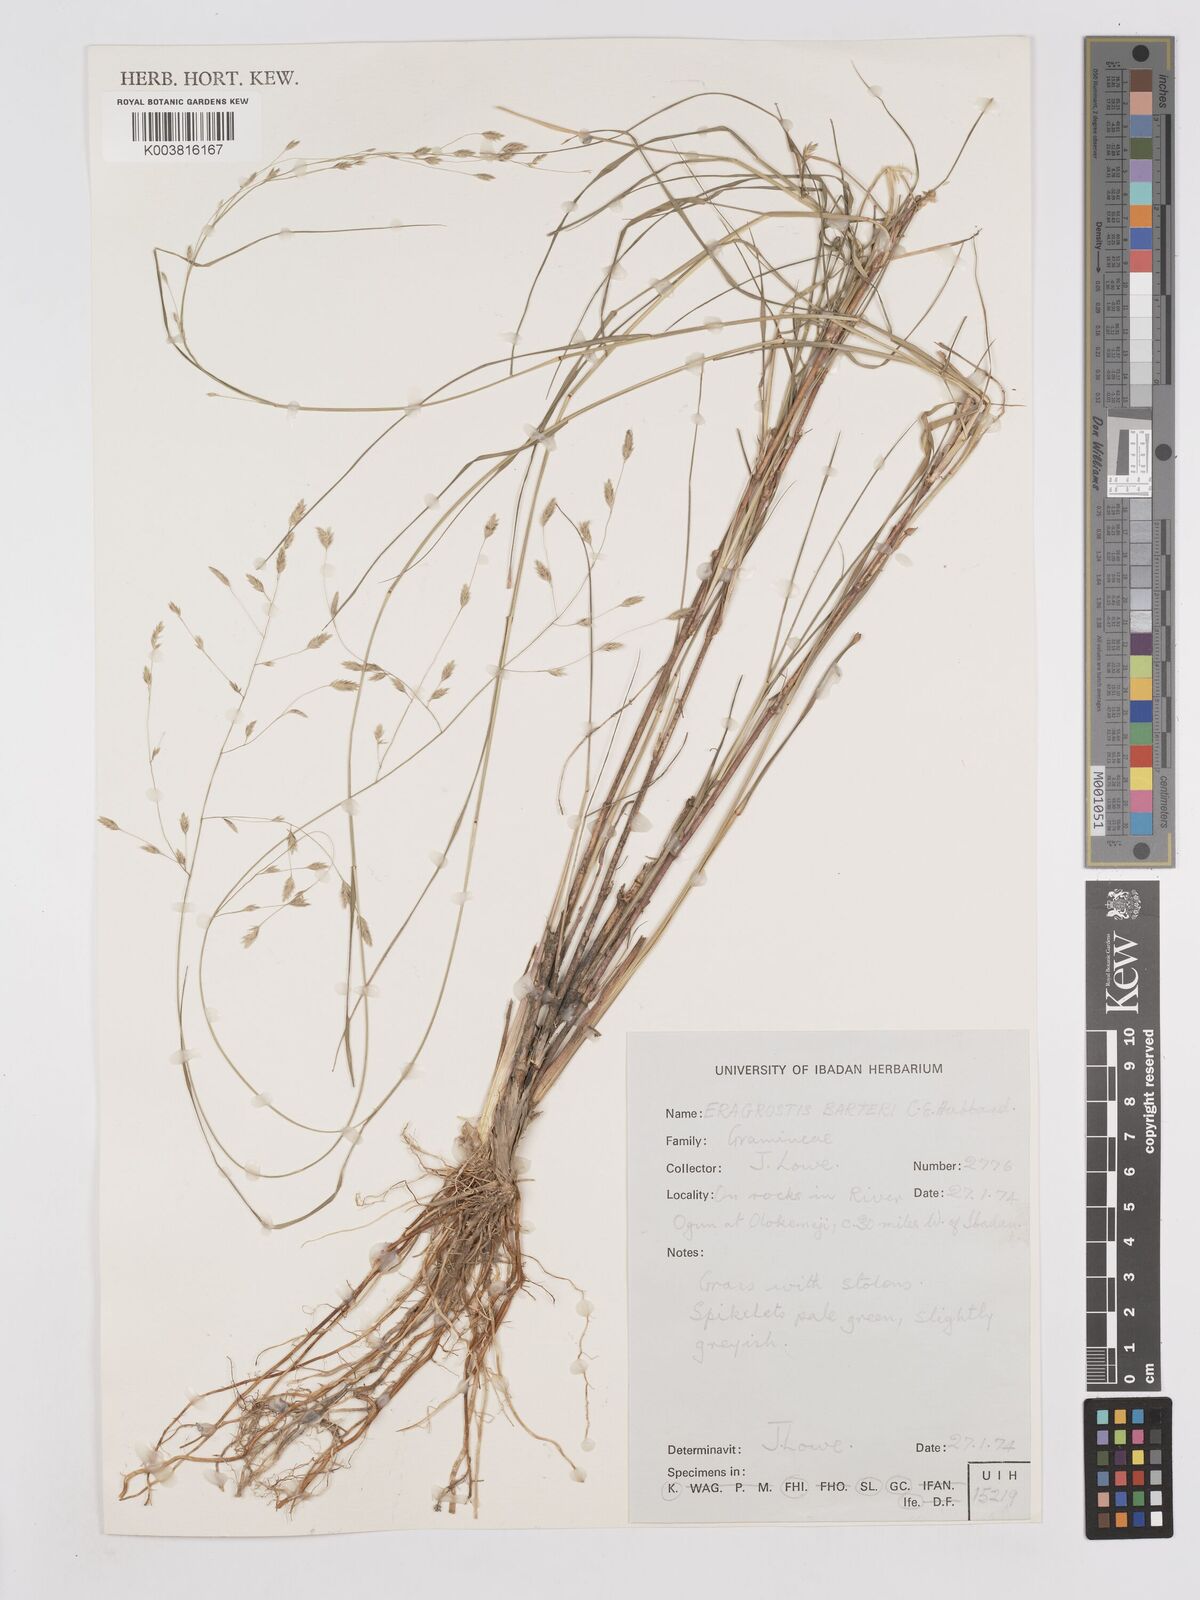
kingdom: Plantae
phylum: Tracheophyta
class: Liliopsida
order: Poales
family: Poaceae
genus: Eragrostis
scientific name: Eragrostis barteri
